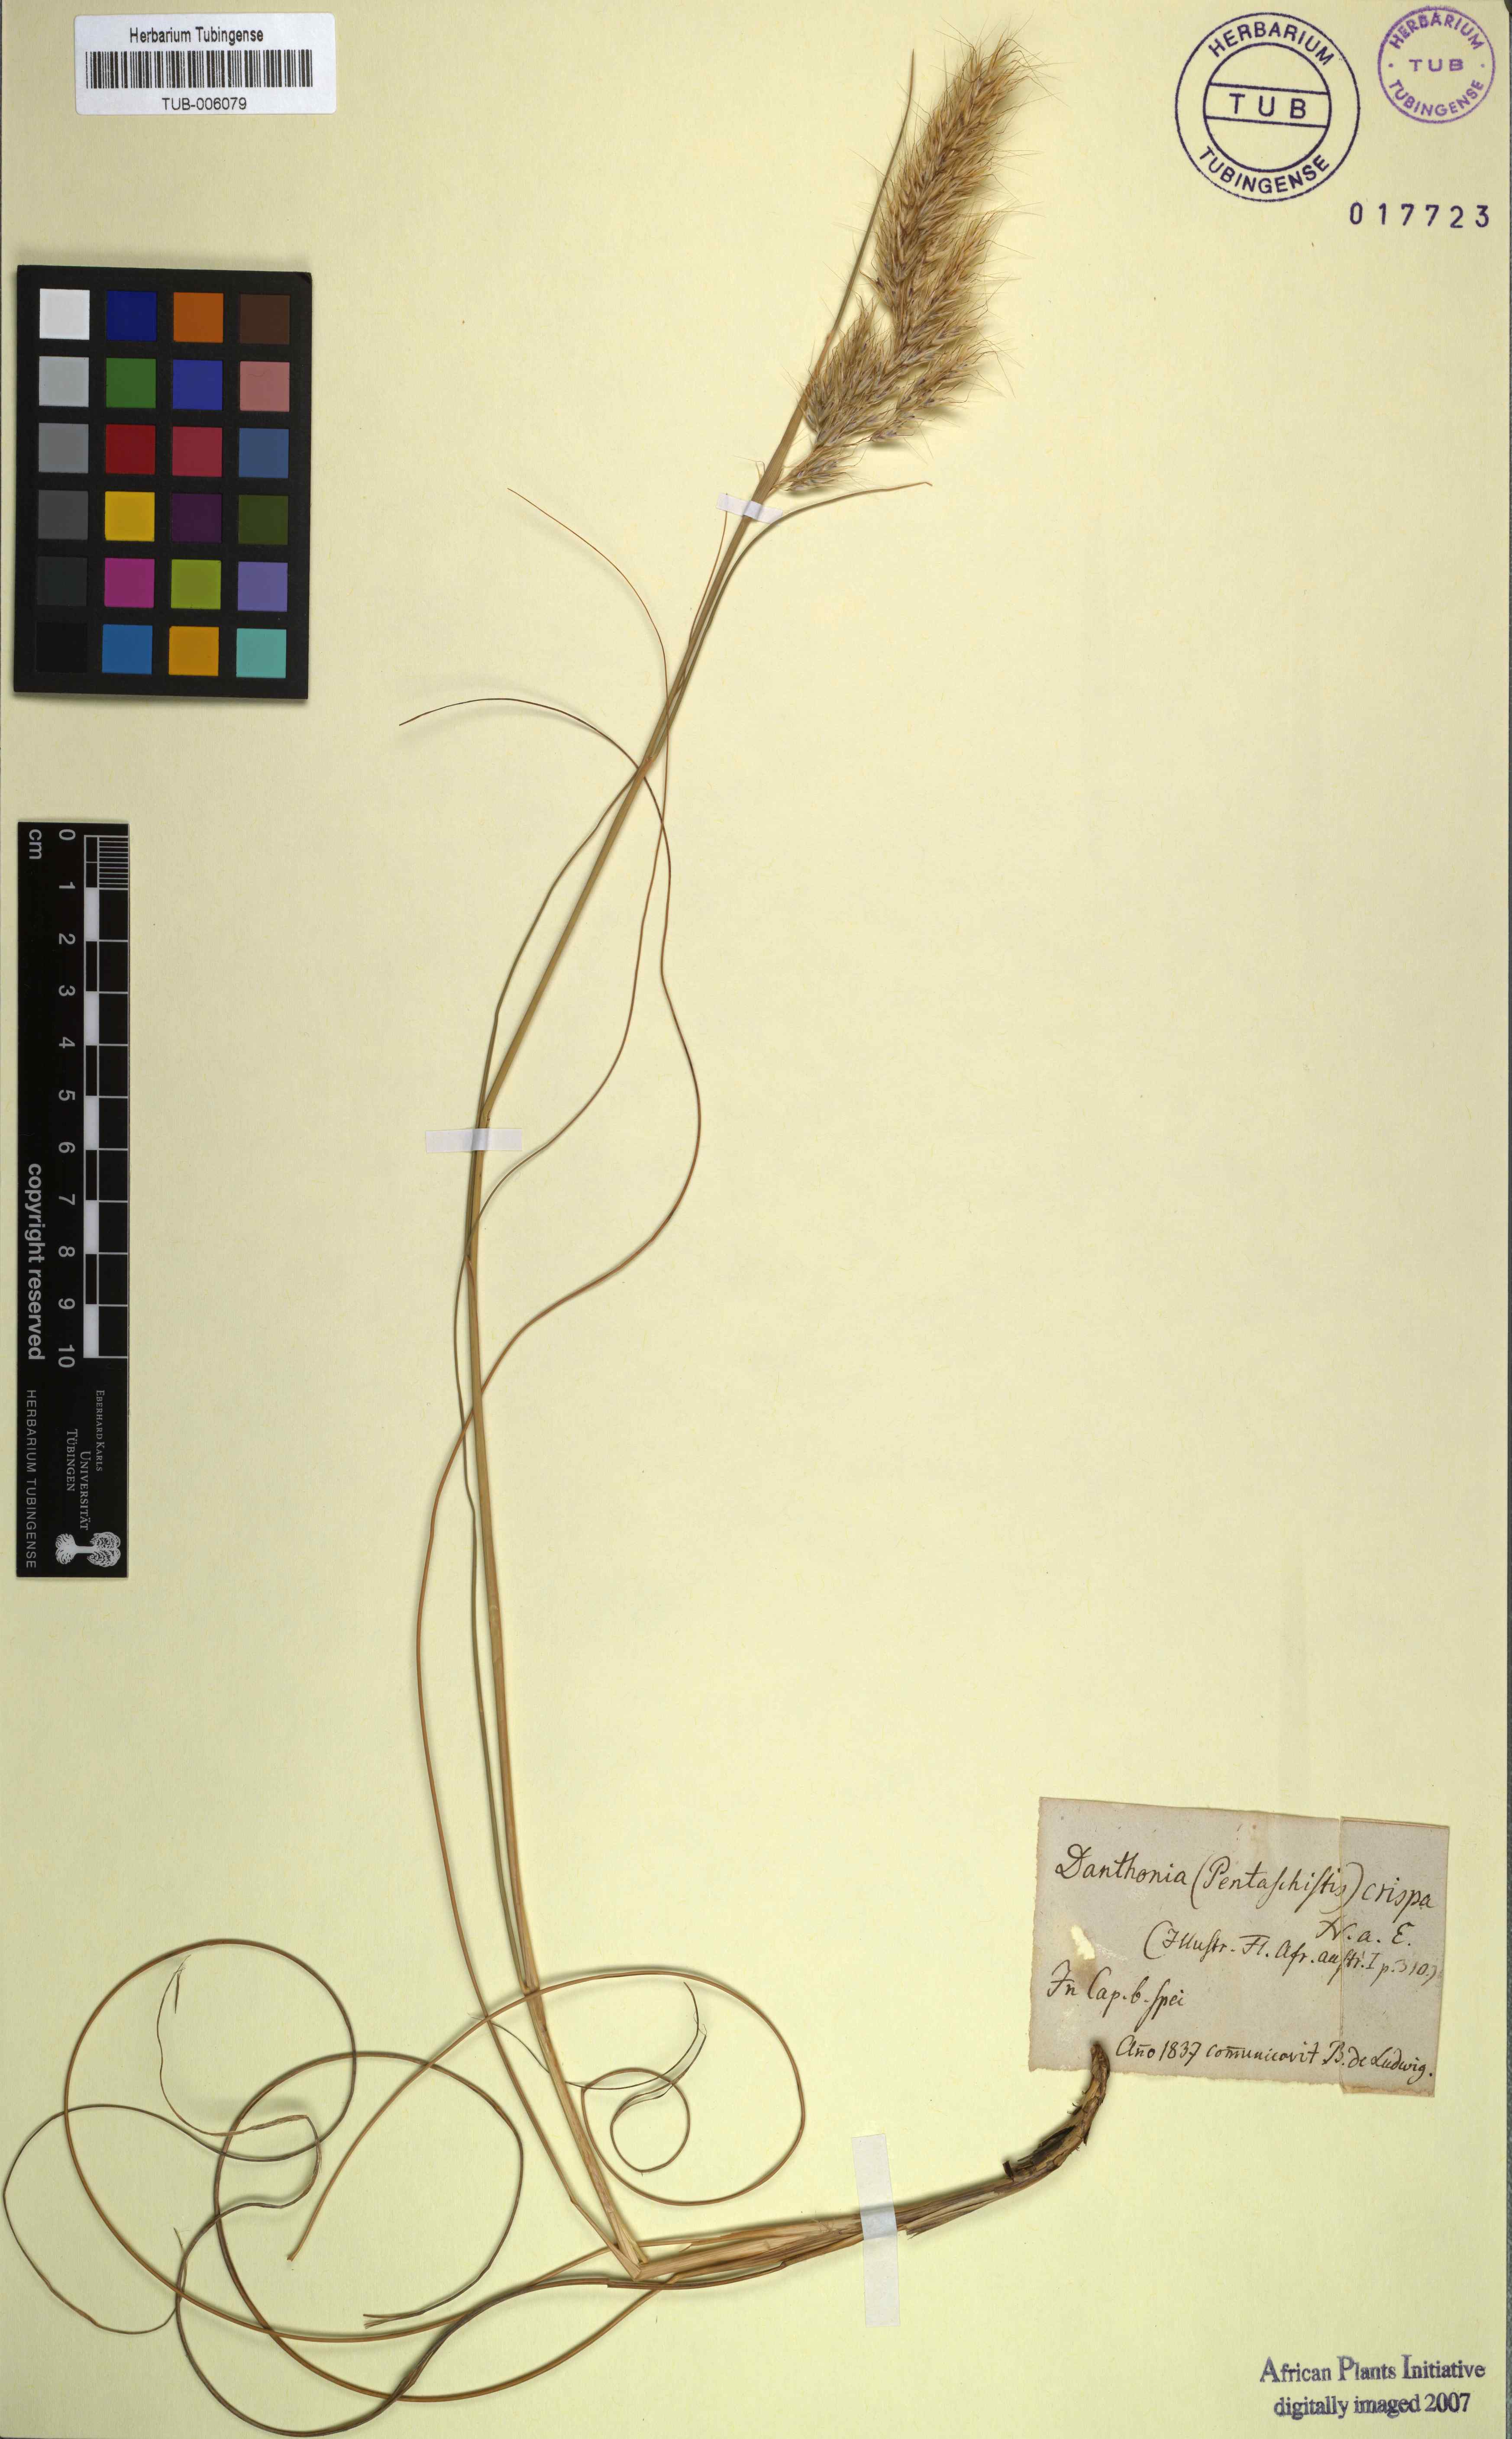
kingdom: Plantae
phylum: Tracheophyta
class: Liliopsida
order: Poales
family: Poaceae
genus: Pentameris
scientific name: Pentameris colorata
